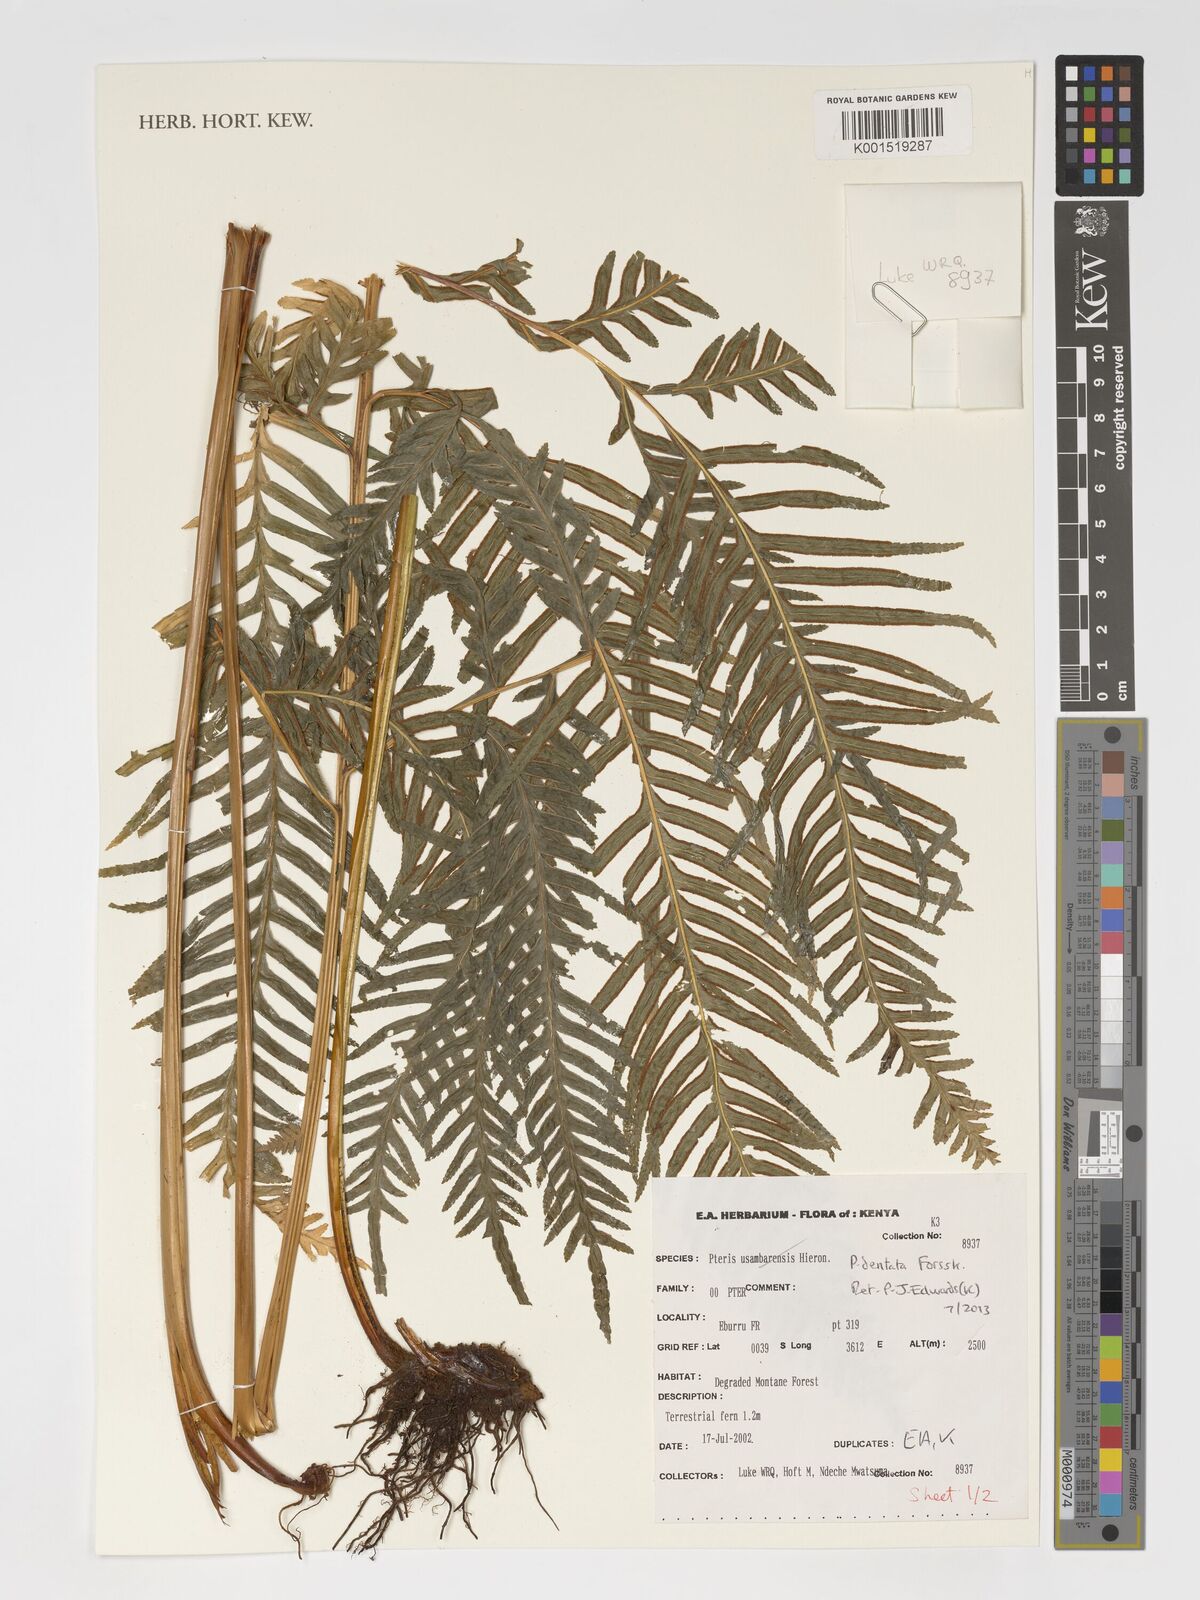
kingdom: Plantae
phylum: Tracheophyta
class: Polypodiopsida
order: Polypodiales
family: Pteridaceae
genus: Pteris
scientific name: Pteris dentata
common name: Toothed brake
